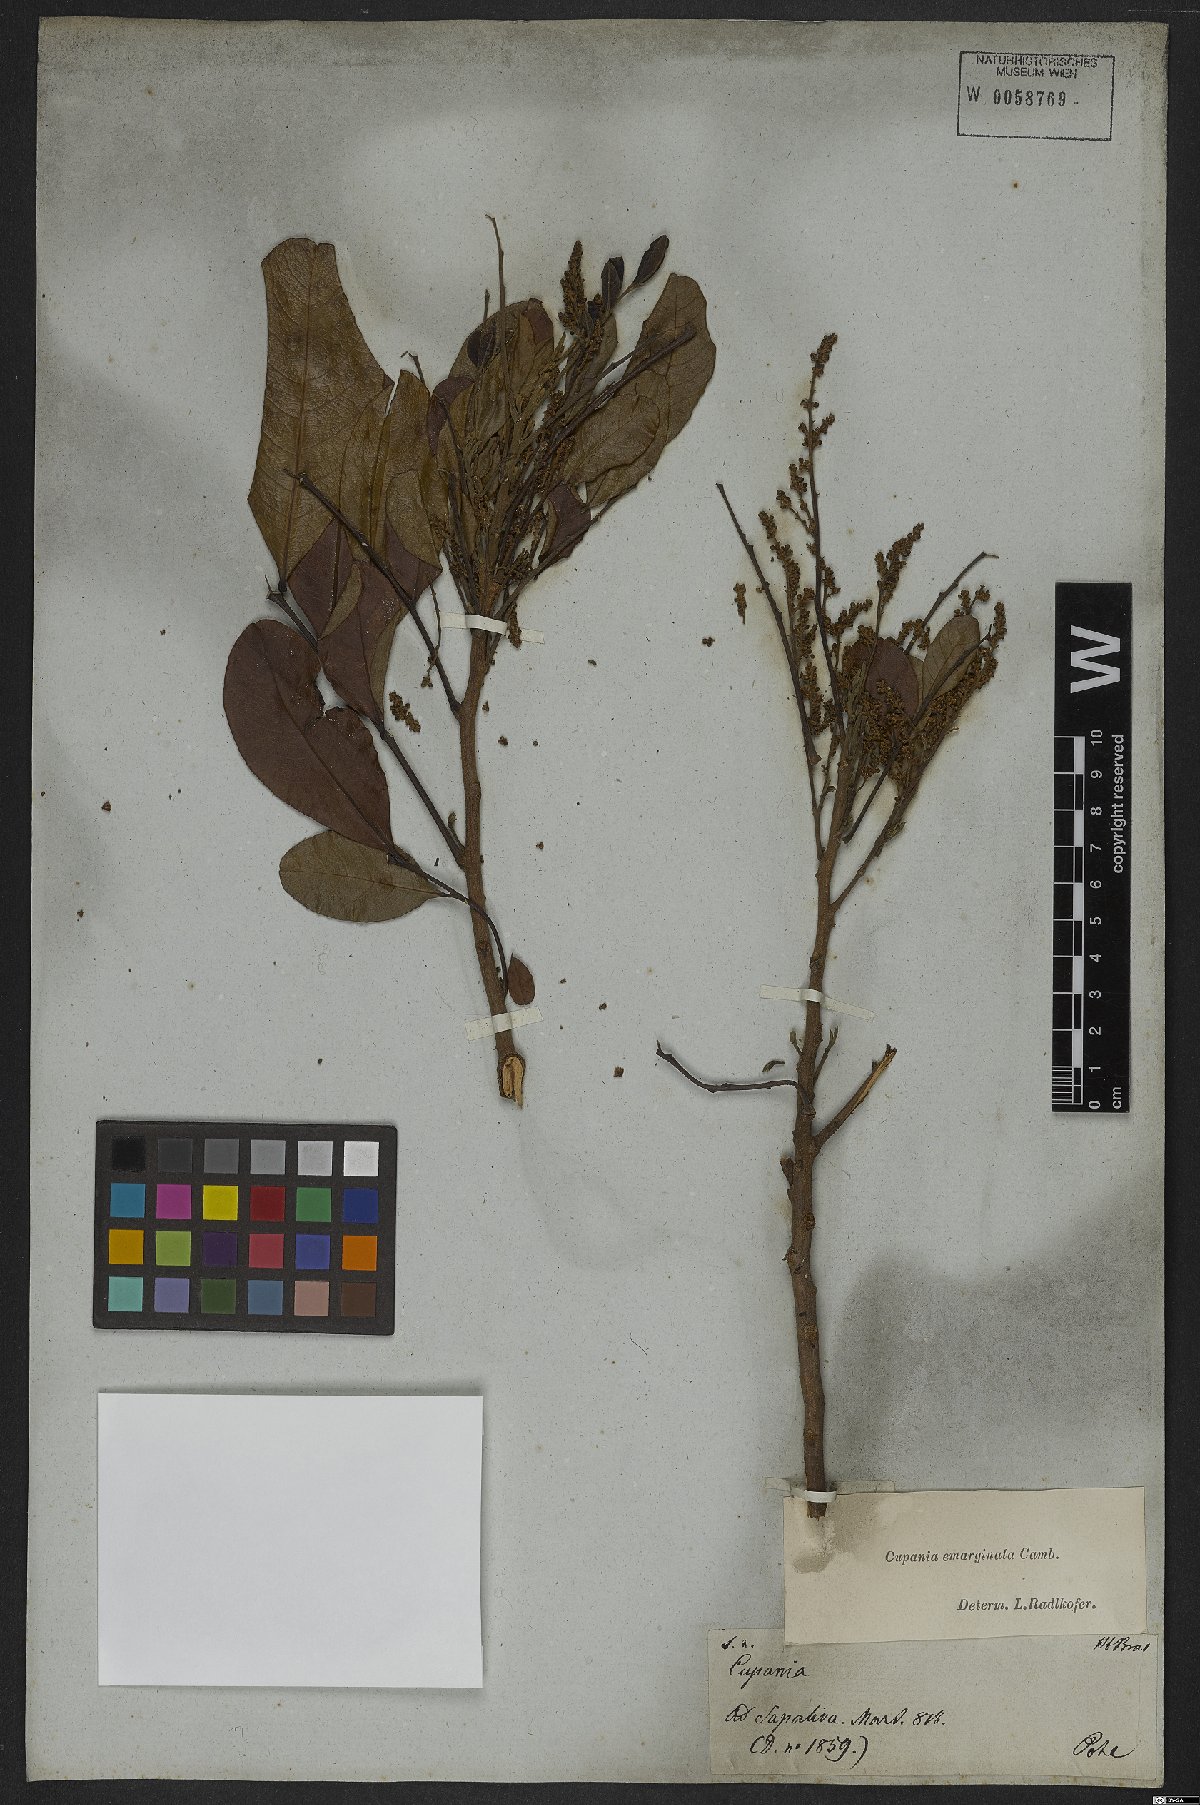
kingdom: Plantae
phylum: Tracheophyta
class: Magnoliopsida
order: Sapindales
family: Sapindaceae
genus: Cupania
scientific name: Cupania emarginata
